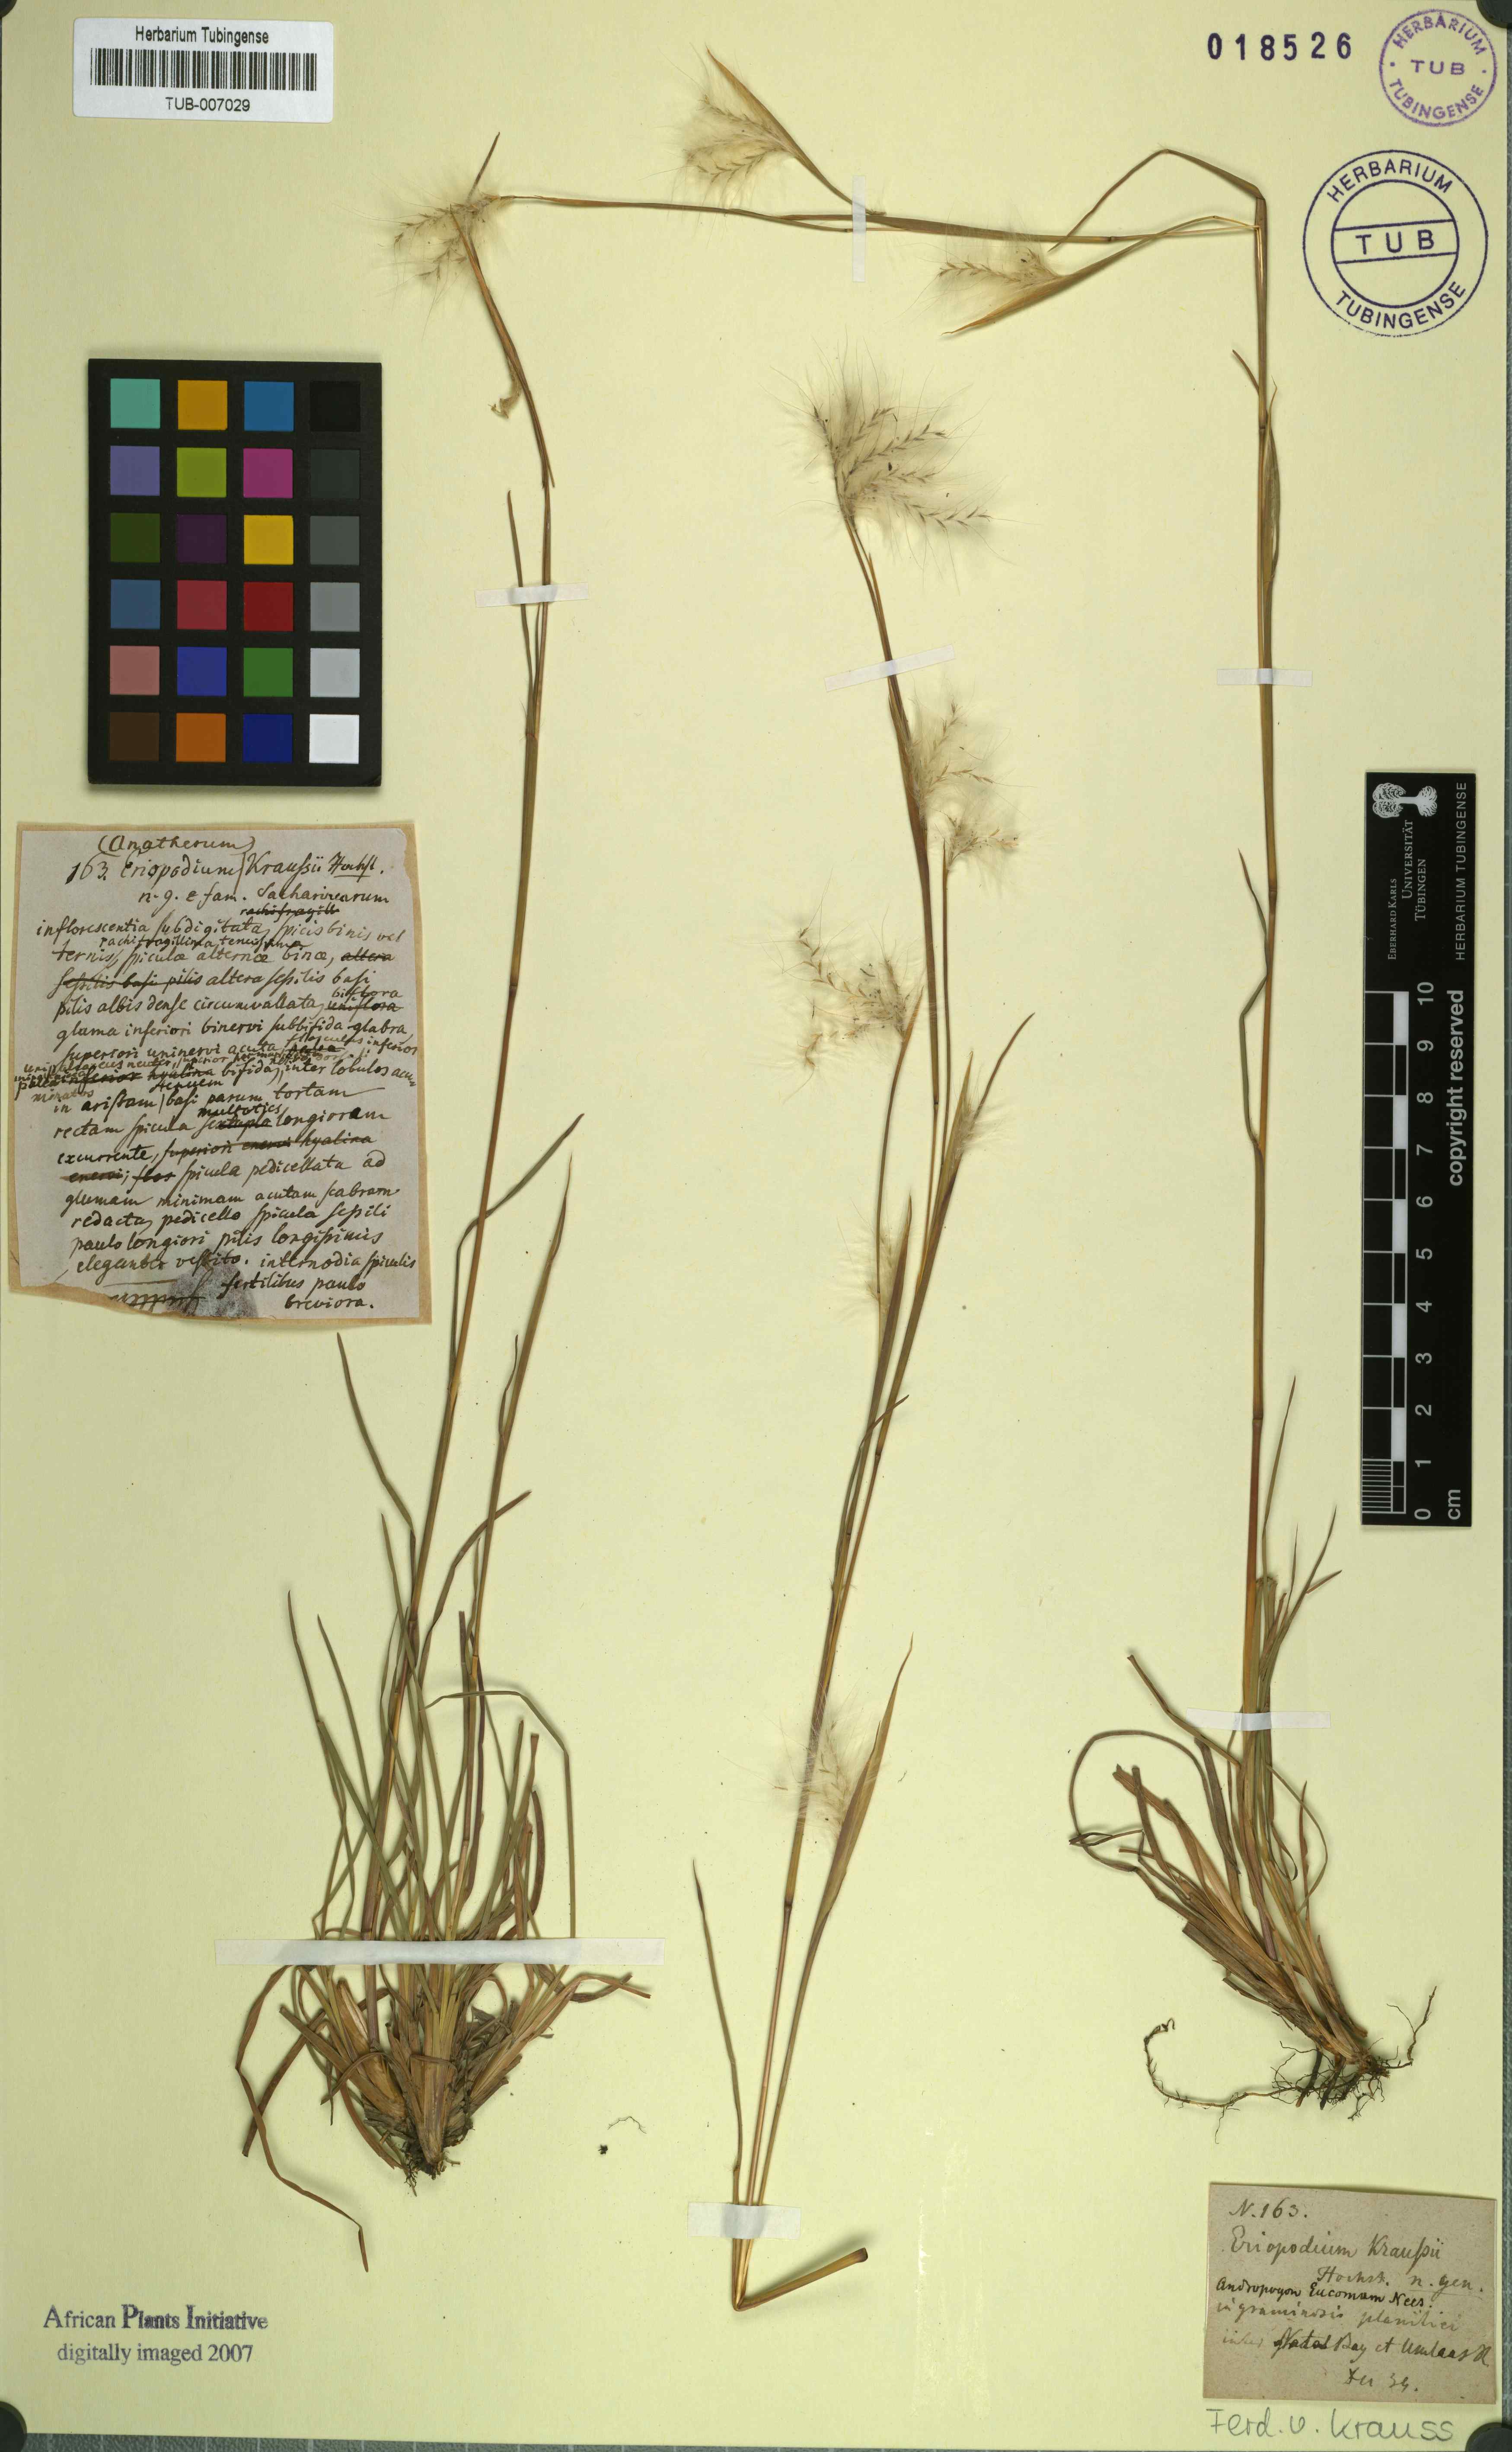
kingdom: Plantae
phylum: Tracheophyta
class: Liliopsida
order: Poales
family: Poaceae
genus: Andropogon
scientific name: Andropogon eucomus
